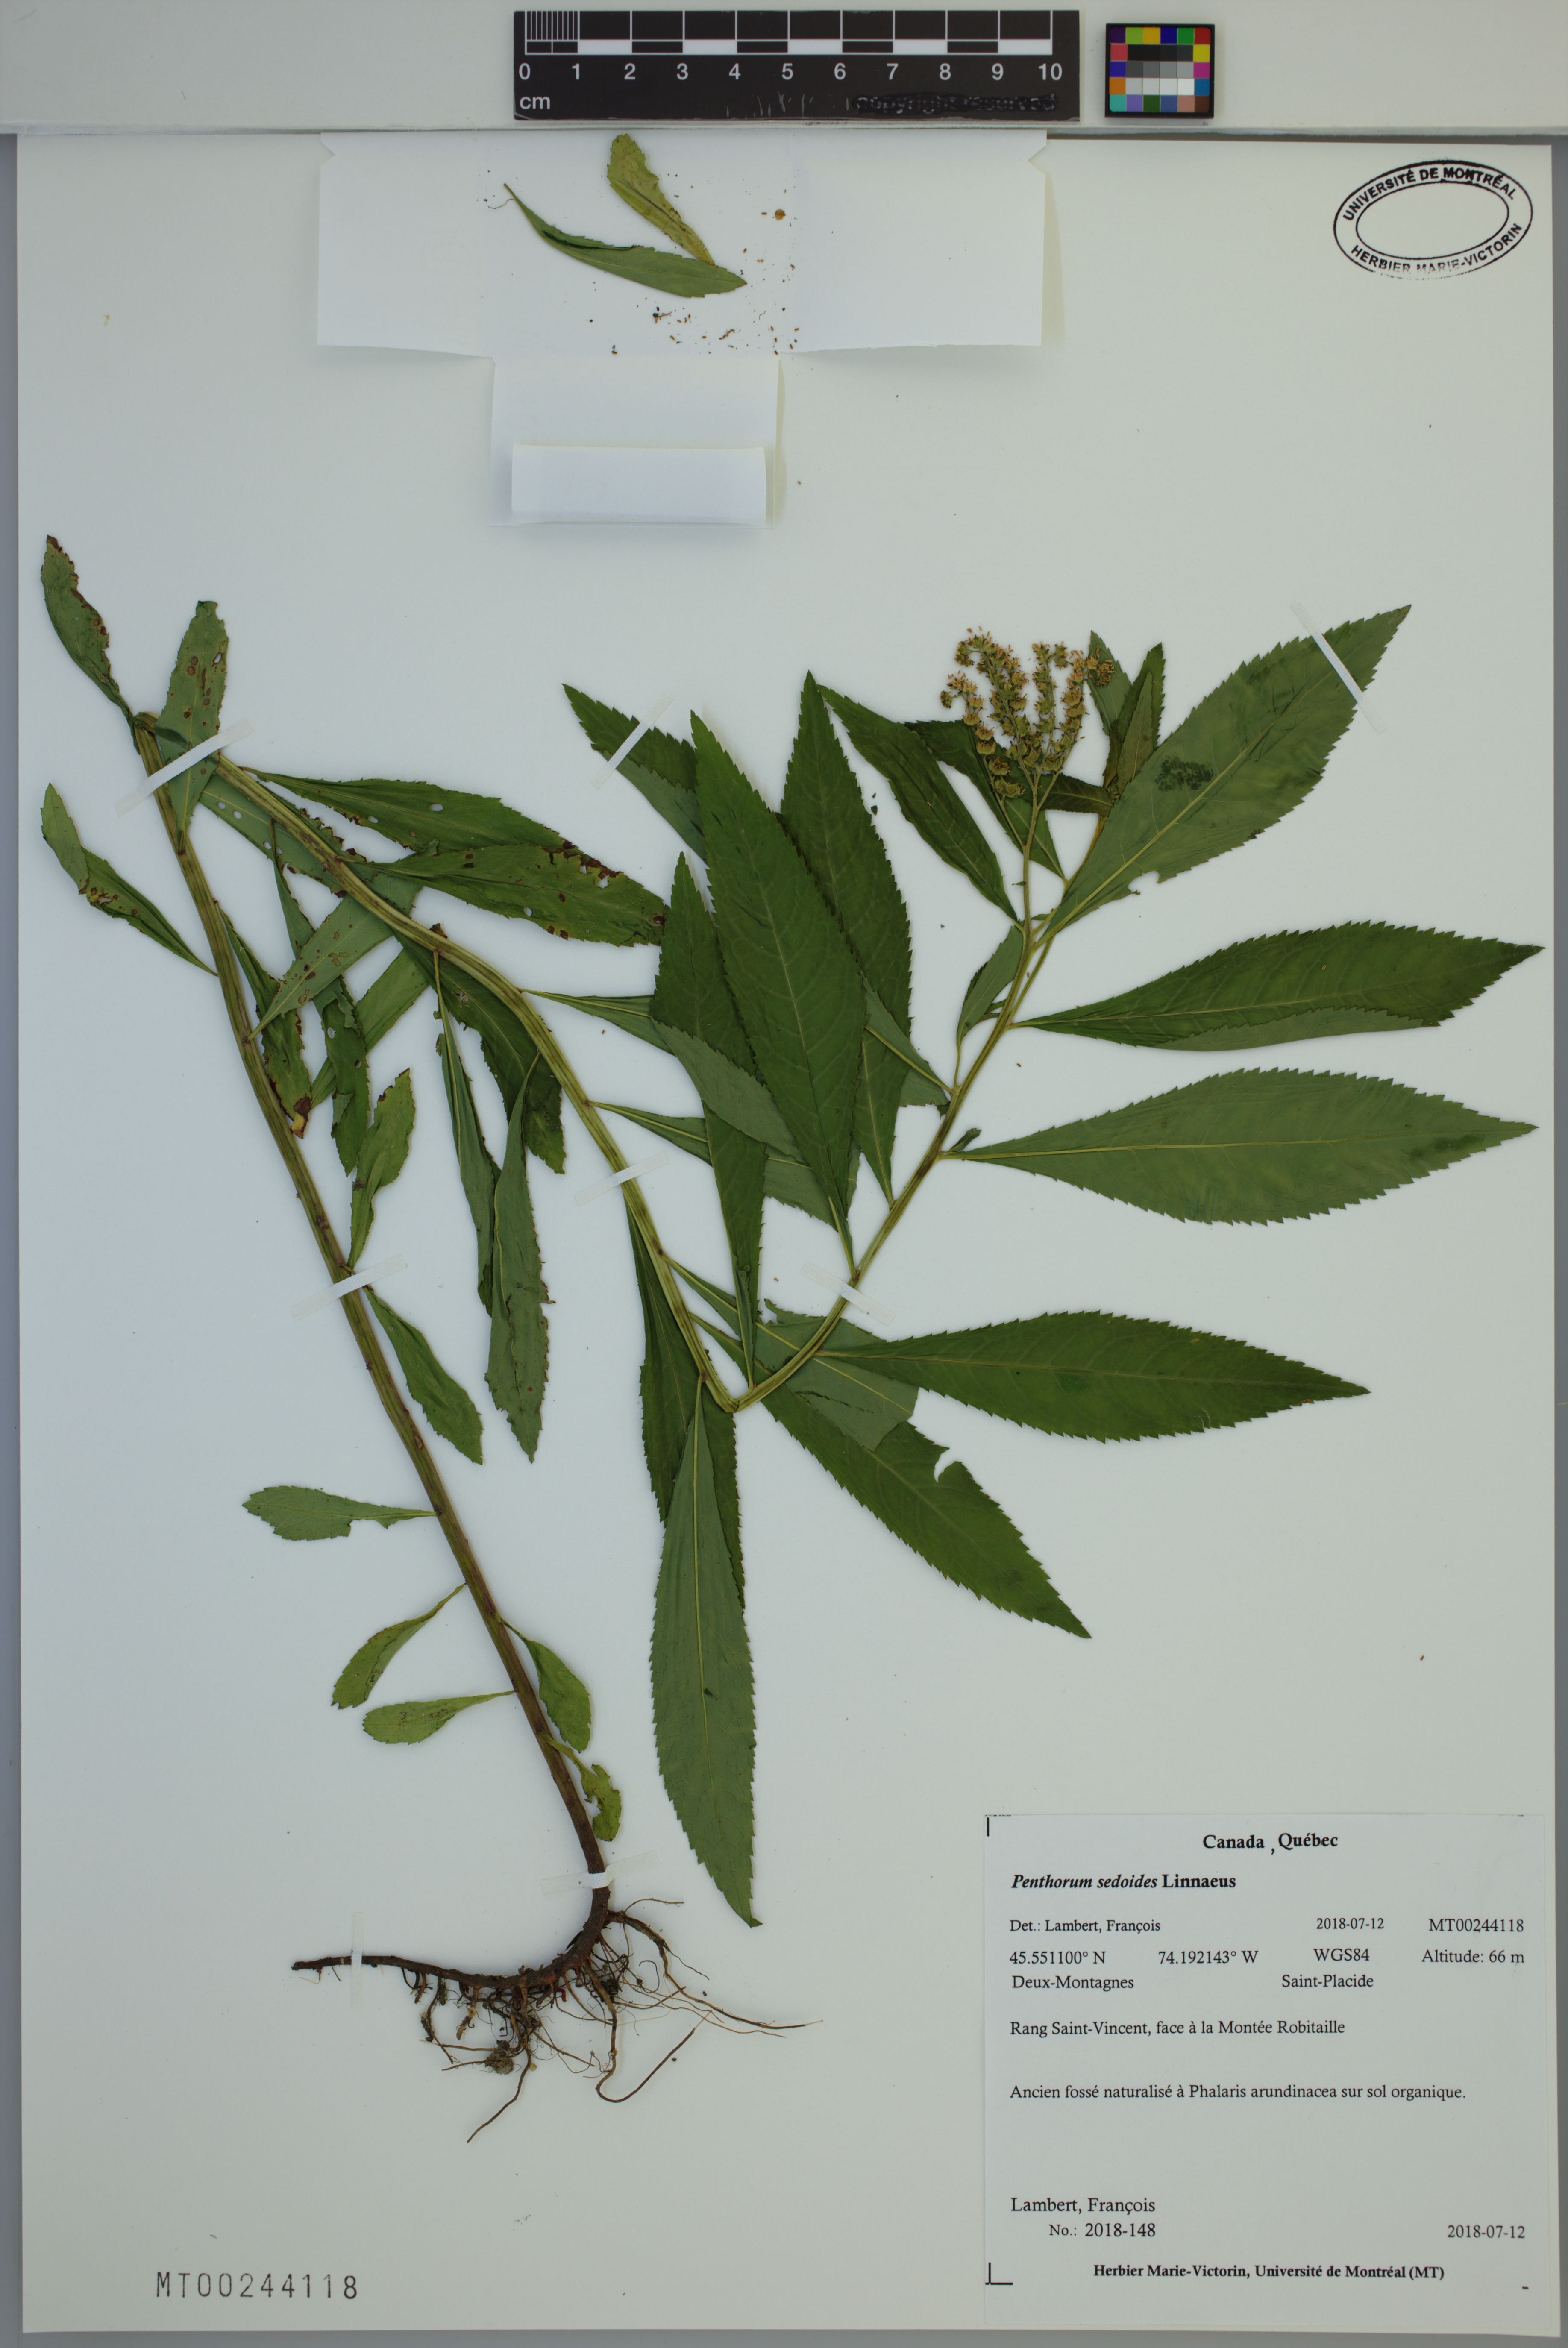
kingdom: Plantae
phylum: Tracheophyta
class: Magnoliopsida
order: Saxifragales
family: Penthoraceae
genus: Penthorum
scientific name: Penthorum sedoides
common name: Ditch stonecrop
